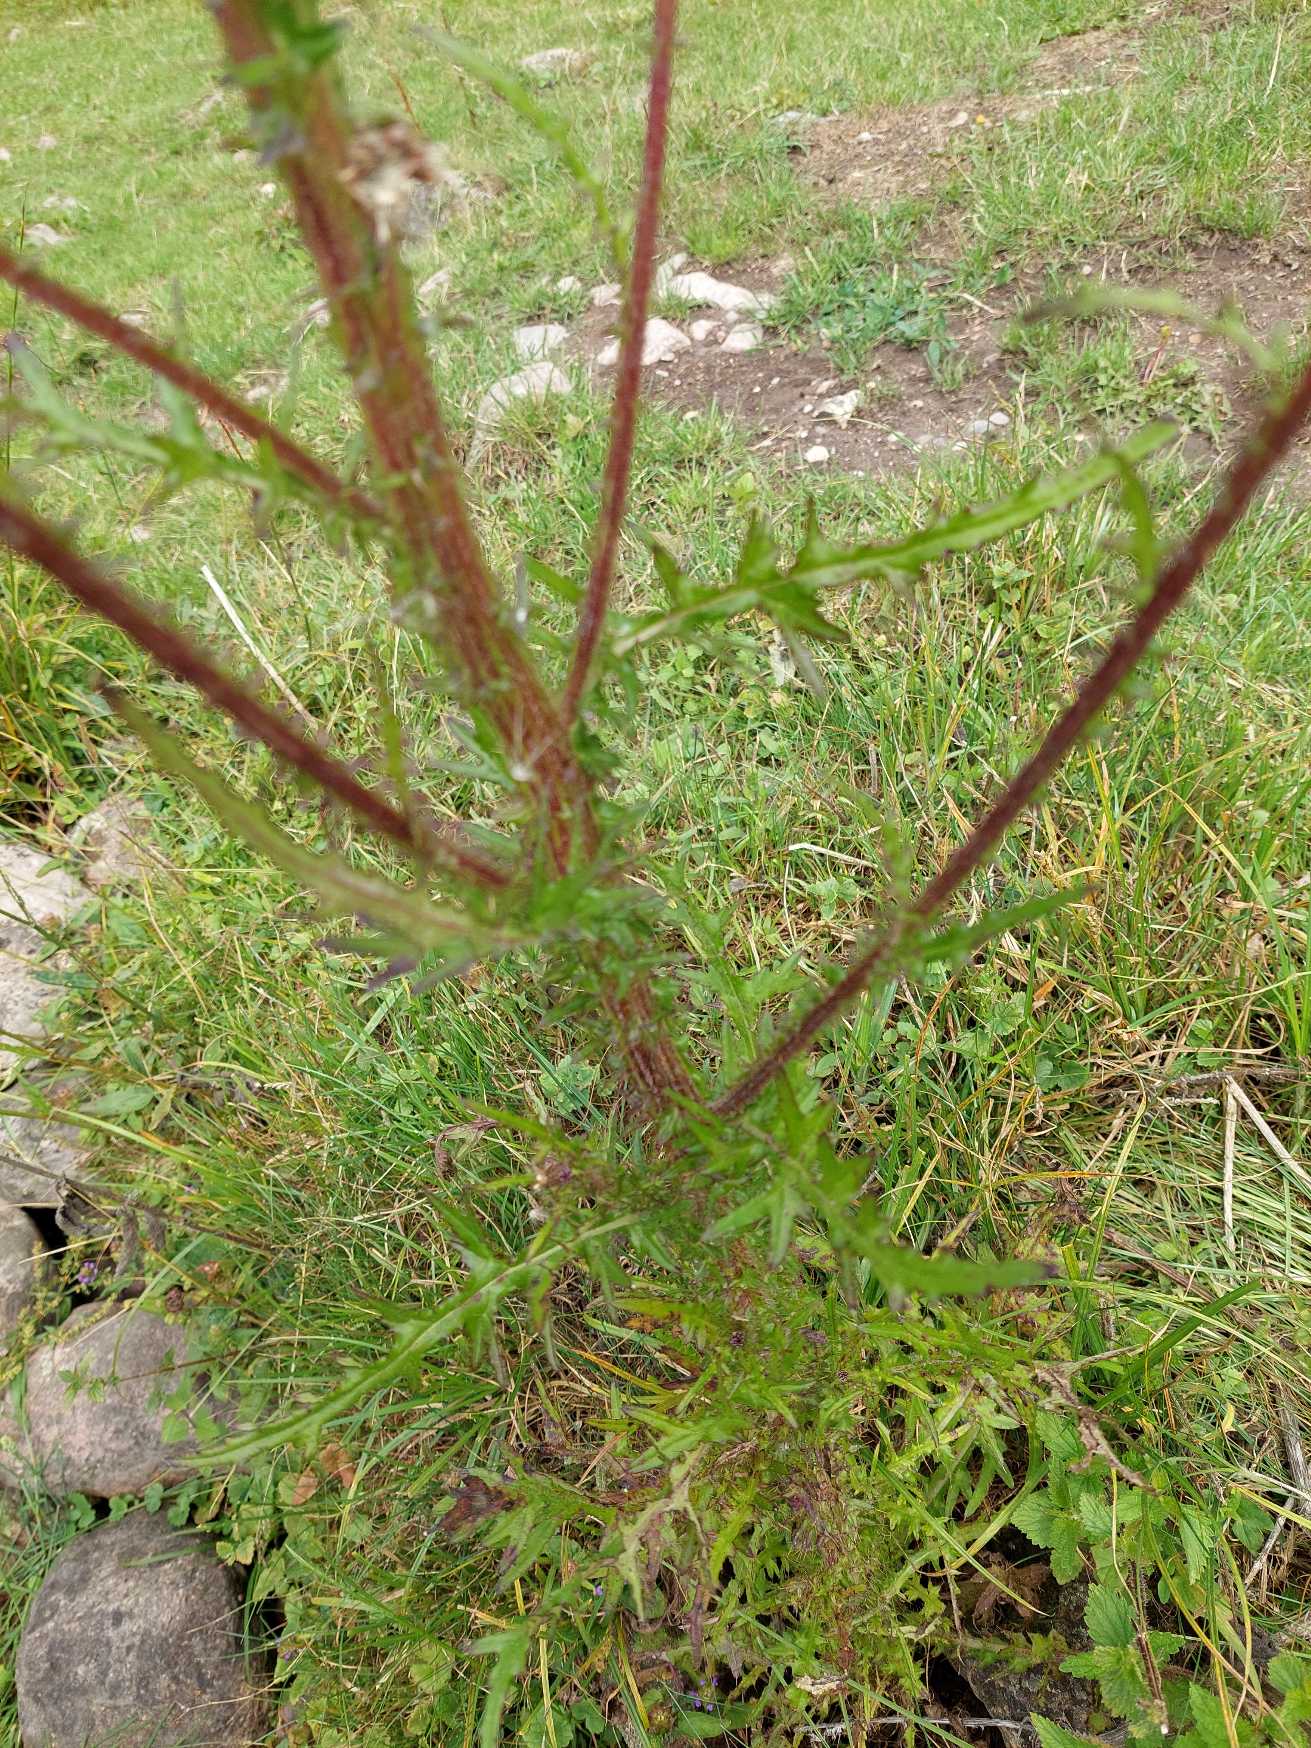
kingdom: Plantae
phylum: Tracheophyta
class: Magnoliopsida
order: Asterales
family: Asteraceae
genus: Cirsium
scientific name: Cirsium palustre
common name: Kær-tidsel
